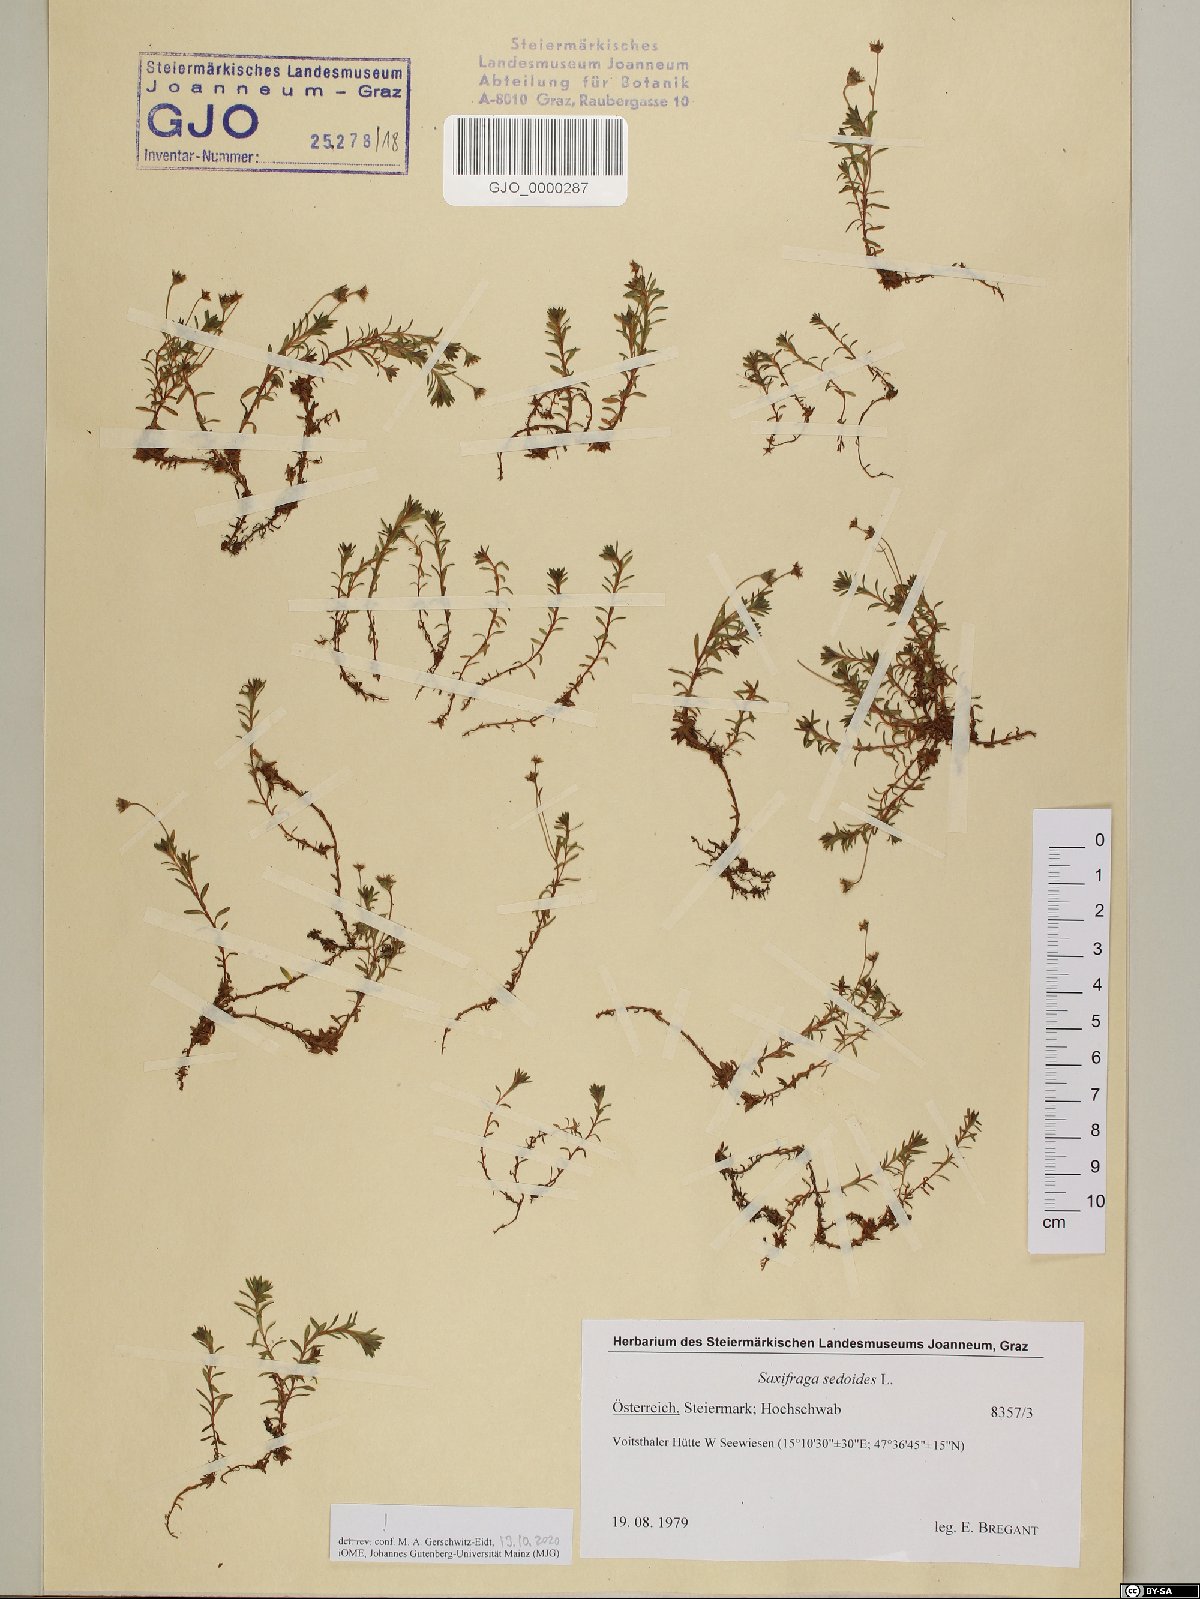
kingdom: Plantae
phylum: Tracheophyta
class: Magnoliopsida
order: Saxifragales
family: Saxifragaceae
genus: Saxifraga
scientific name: Saxifraga sedoides
